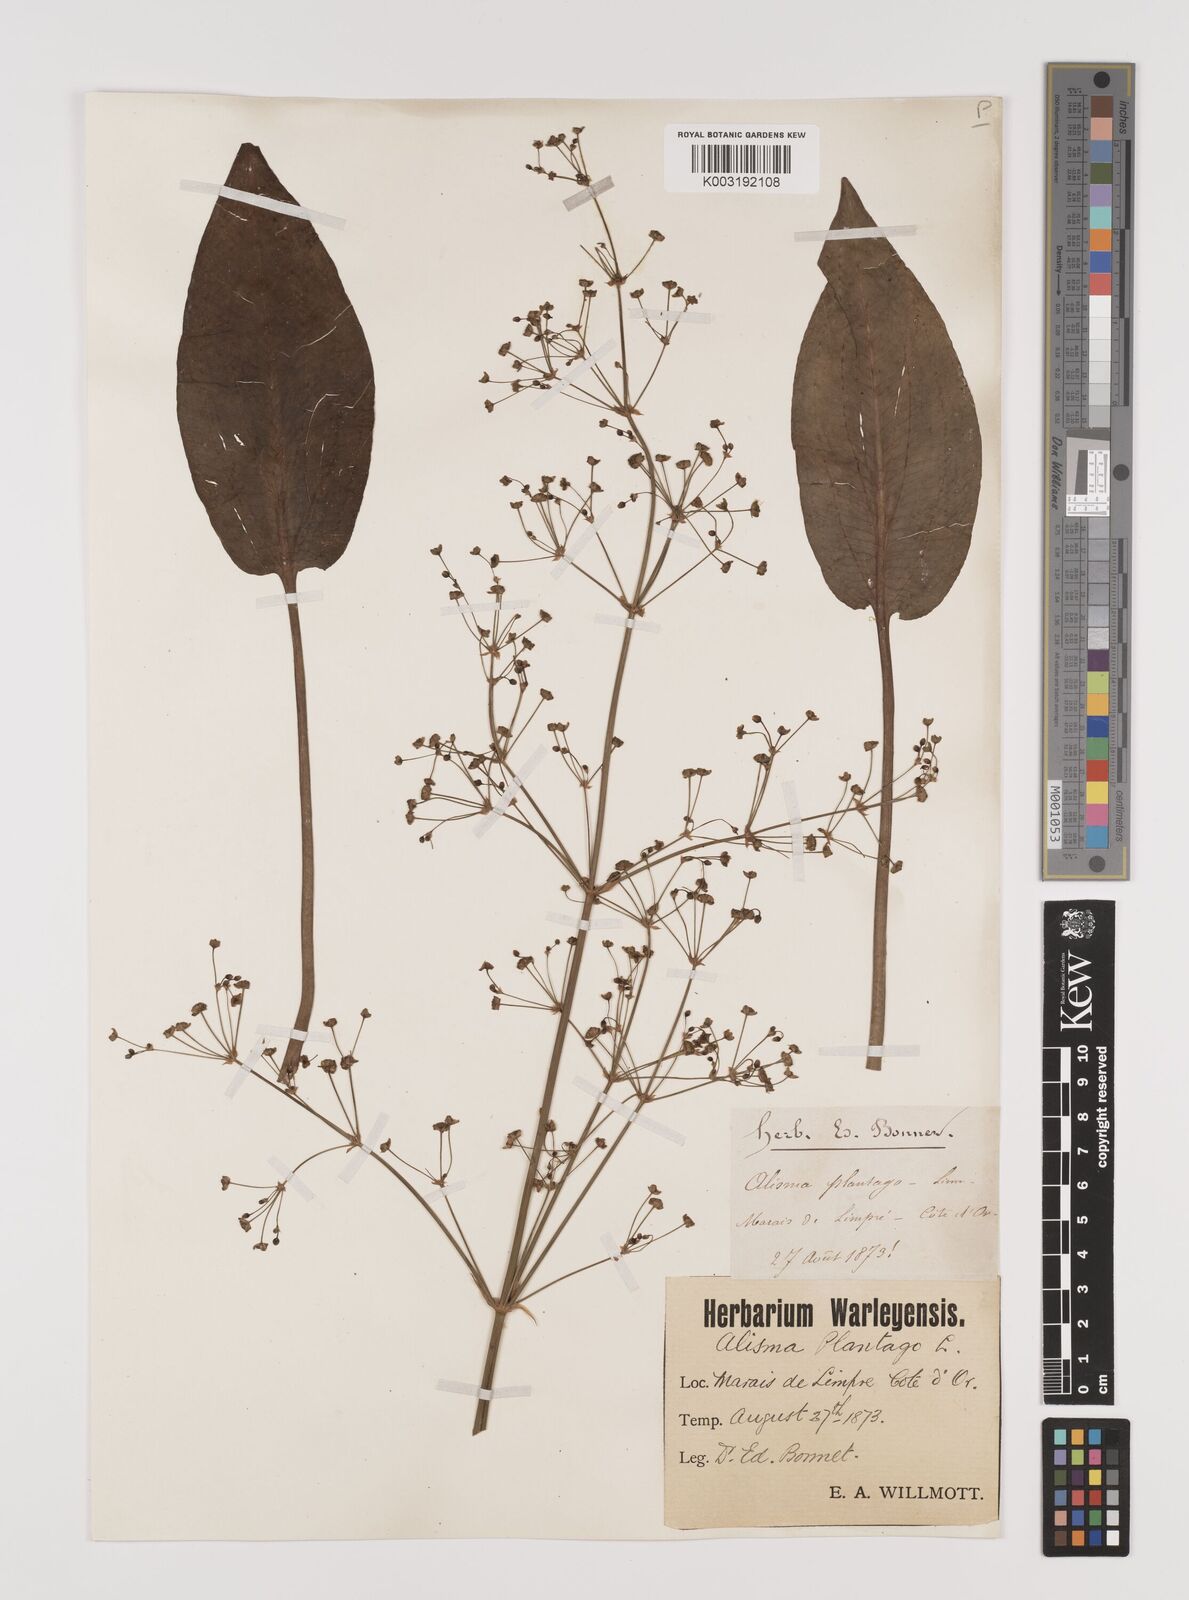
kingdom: Plantae
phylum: Tracheophyta
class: Liliopsida
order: Alismatales
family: Alismataceae
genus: Alisma
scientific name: Alisma plantago-aquatica
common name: Water-plantain
